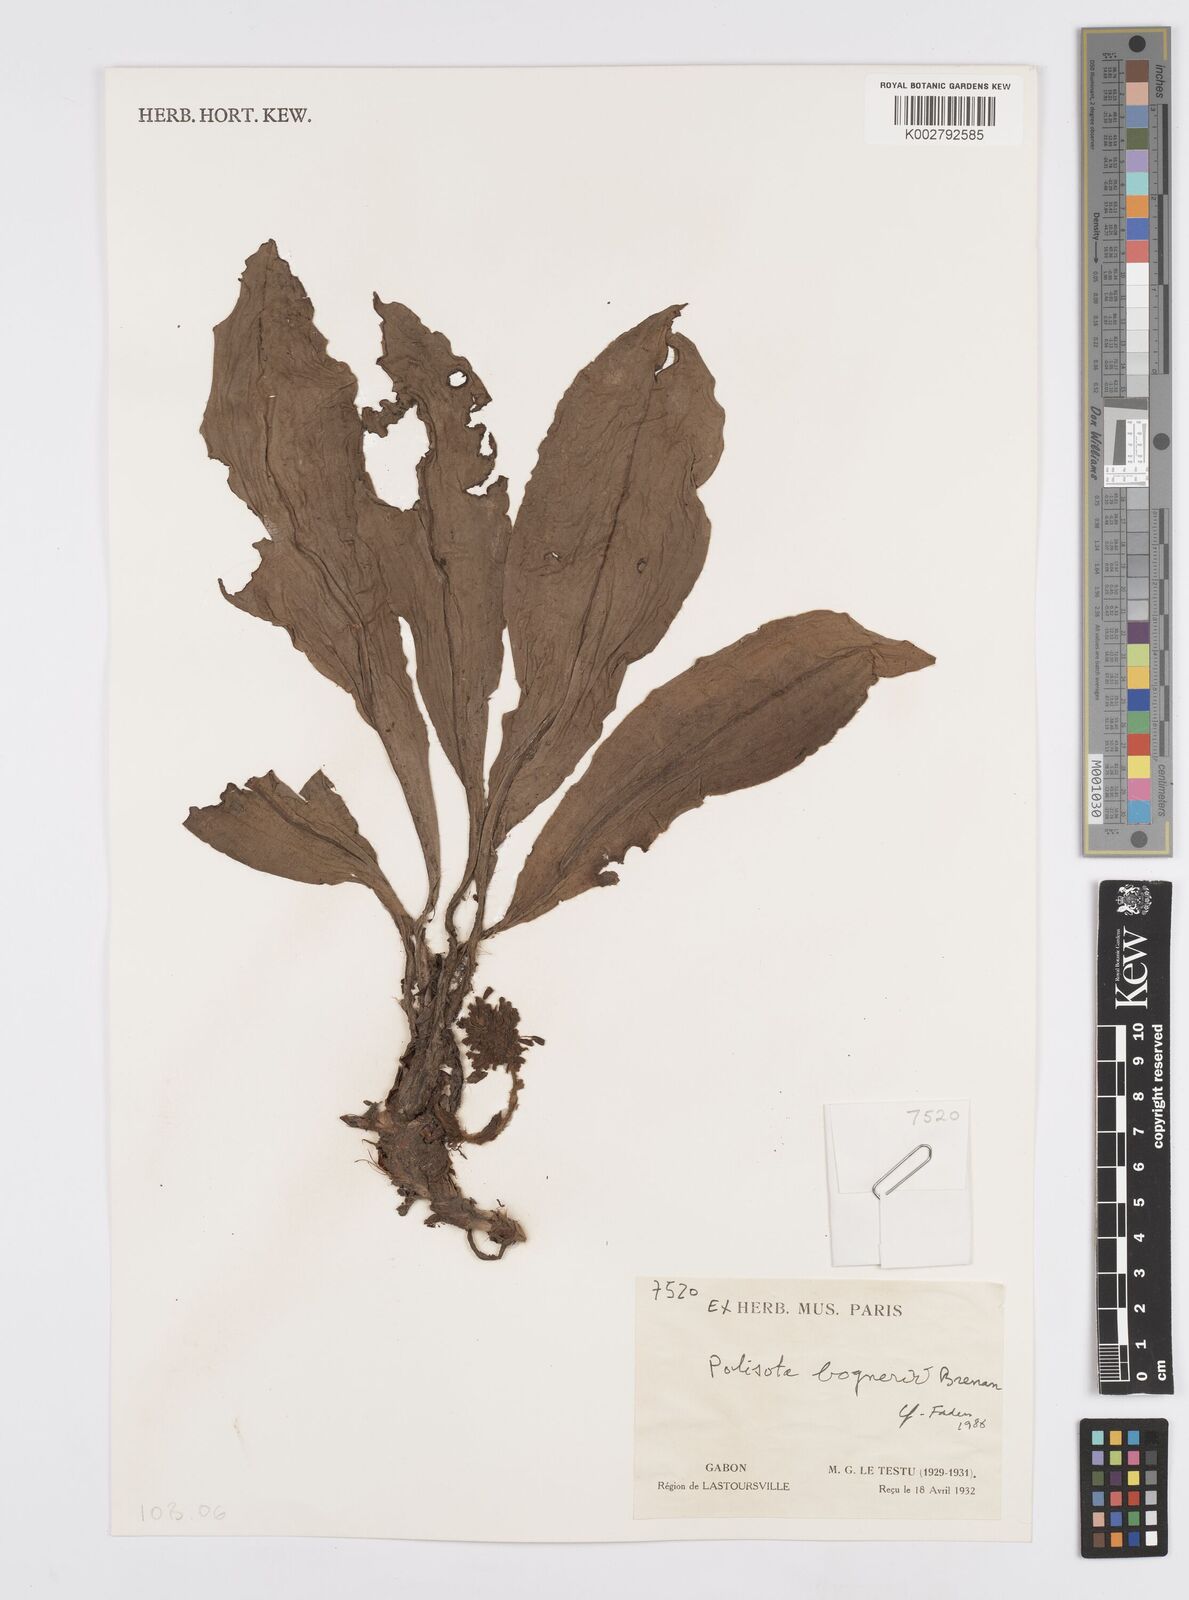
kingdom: Plantae
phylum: Tracheophyta
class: Liliopsida
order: Commelinales
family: Commelinaceae
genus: Palisota
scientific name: Palisota bogneri
